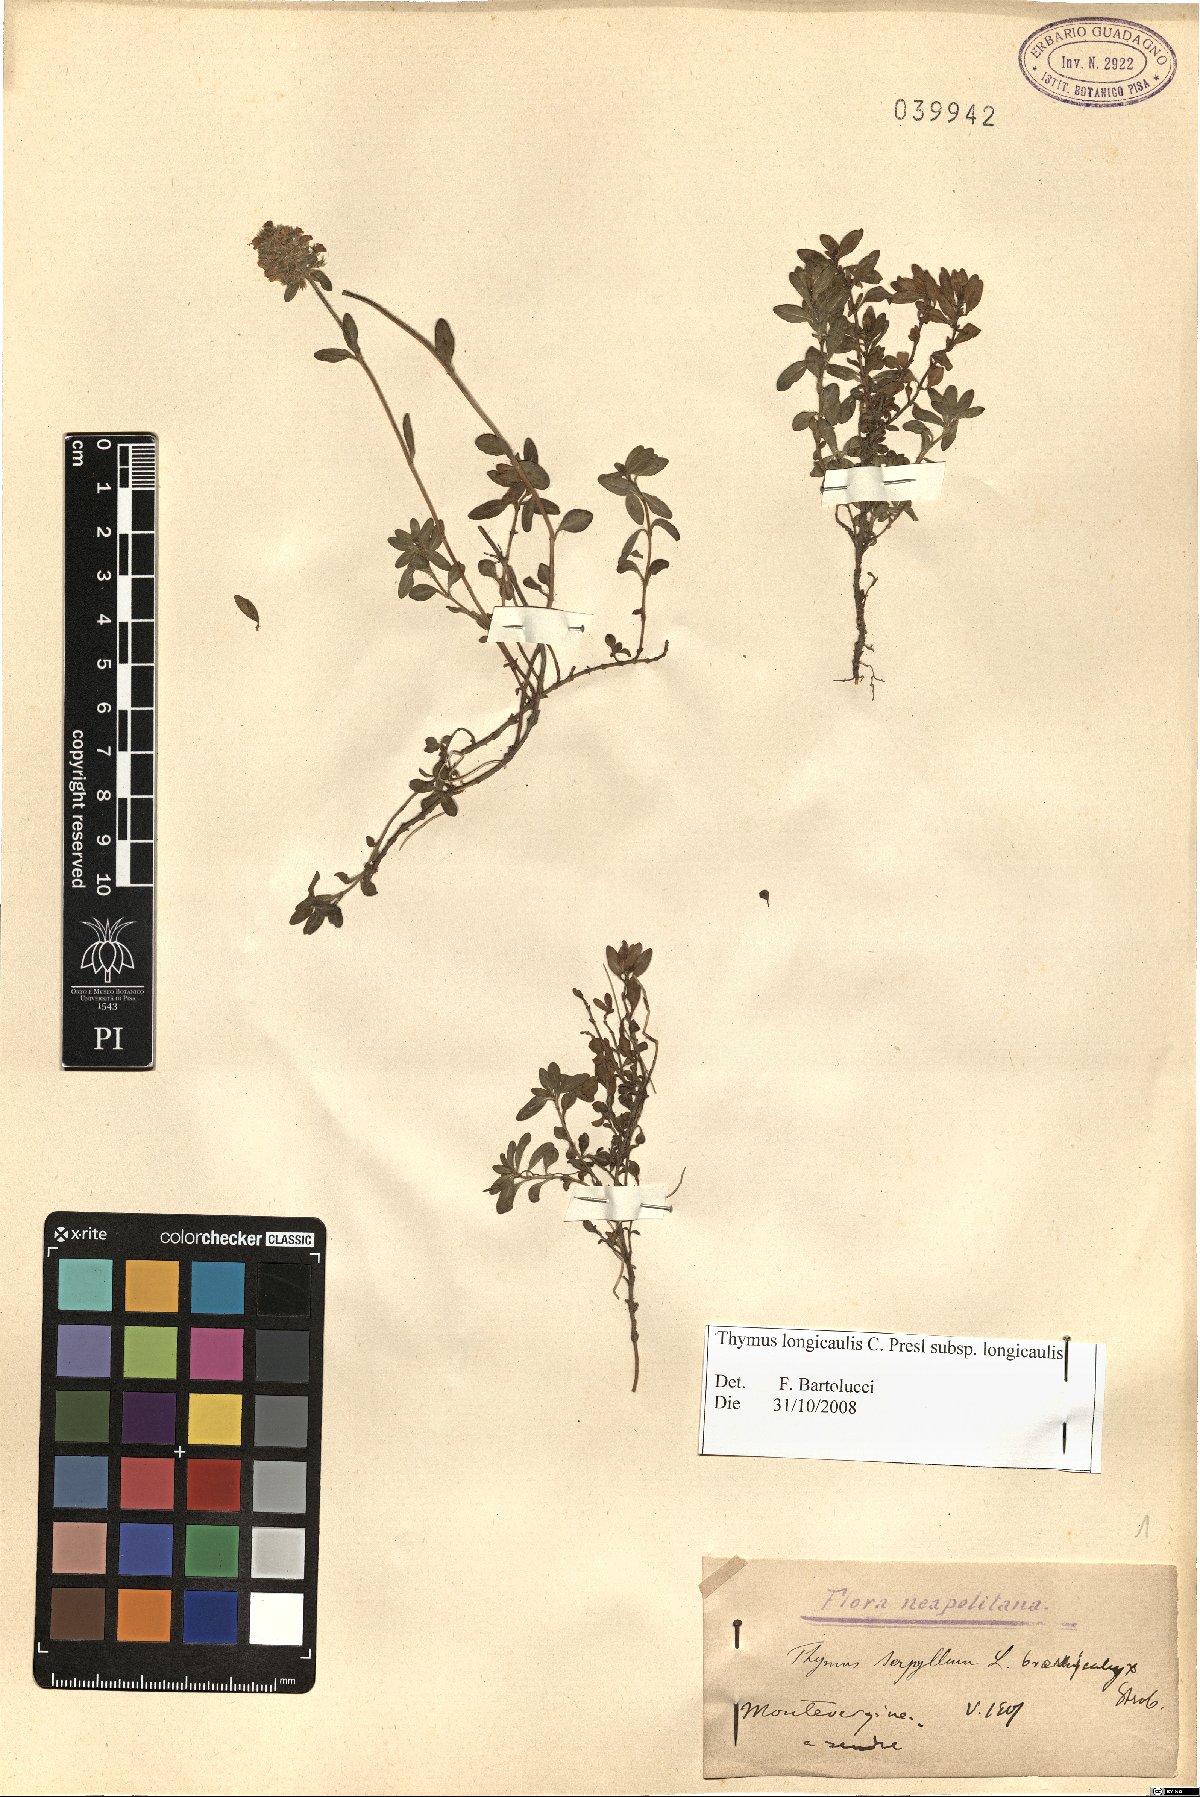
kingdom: Plantae
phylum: Tracheophyta
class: Magnoliopsida
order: Lamiales
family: Lamiaceae
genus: Thymus
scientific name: Thymus longicaulis
